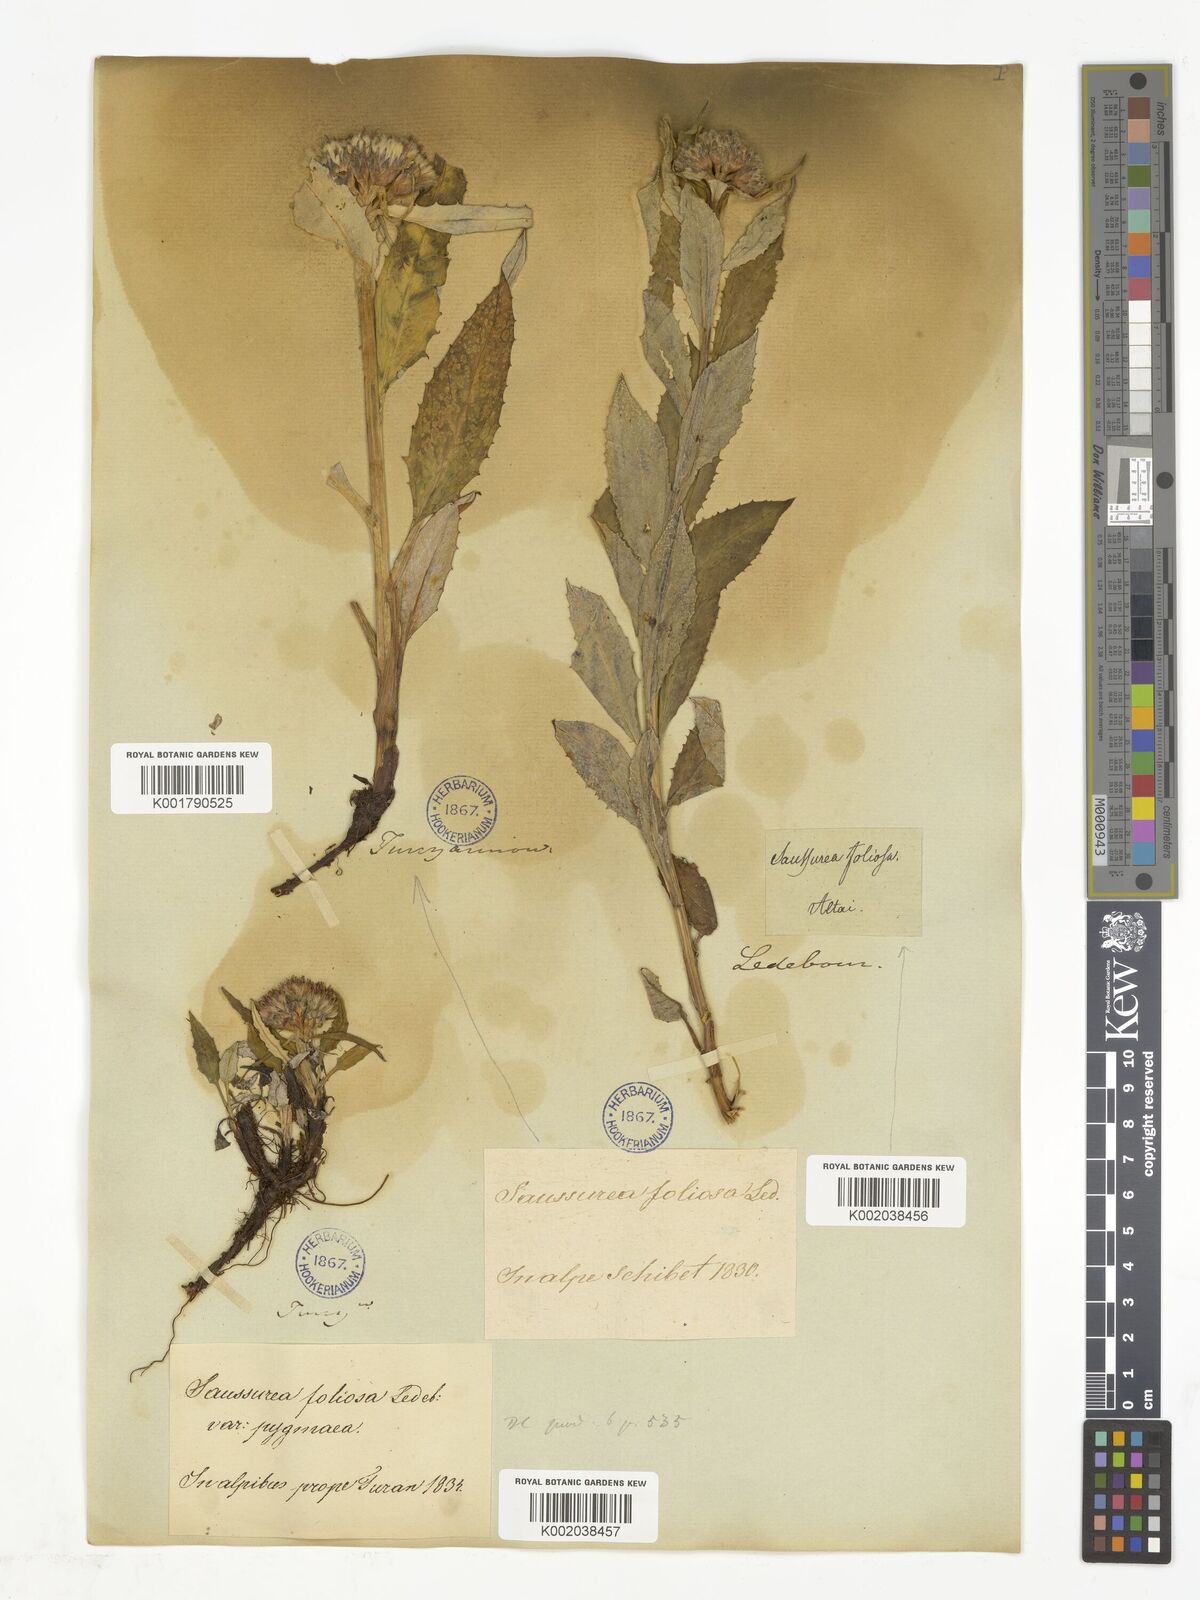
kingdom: Plantae
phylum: Tracheophyta
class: Magnoliopsida
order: Asterales
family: Asteraceae
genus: Saussurea
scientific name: Saussurea foliosa
